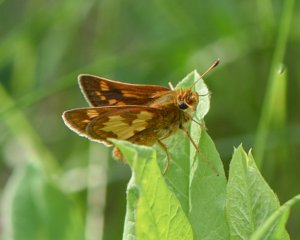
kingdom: Animalia
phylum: Arthropoda
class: Insecta
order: Lepidoptera
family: Hesperiidae
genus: Polites
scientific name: Polites coras
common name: Peck's Skipper
